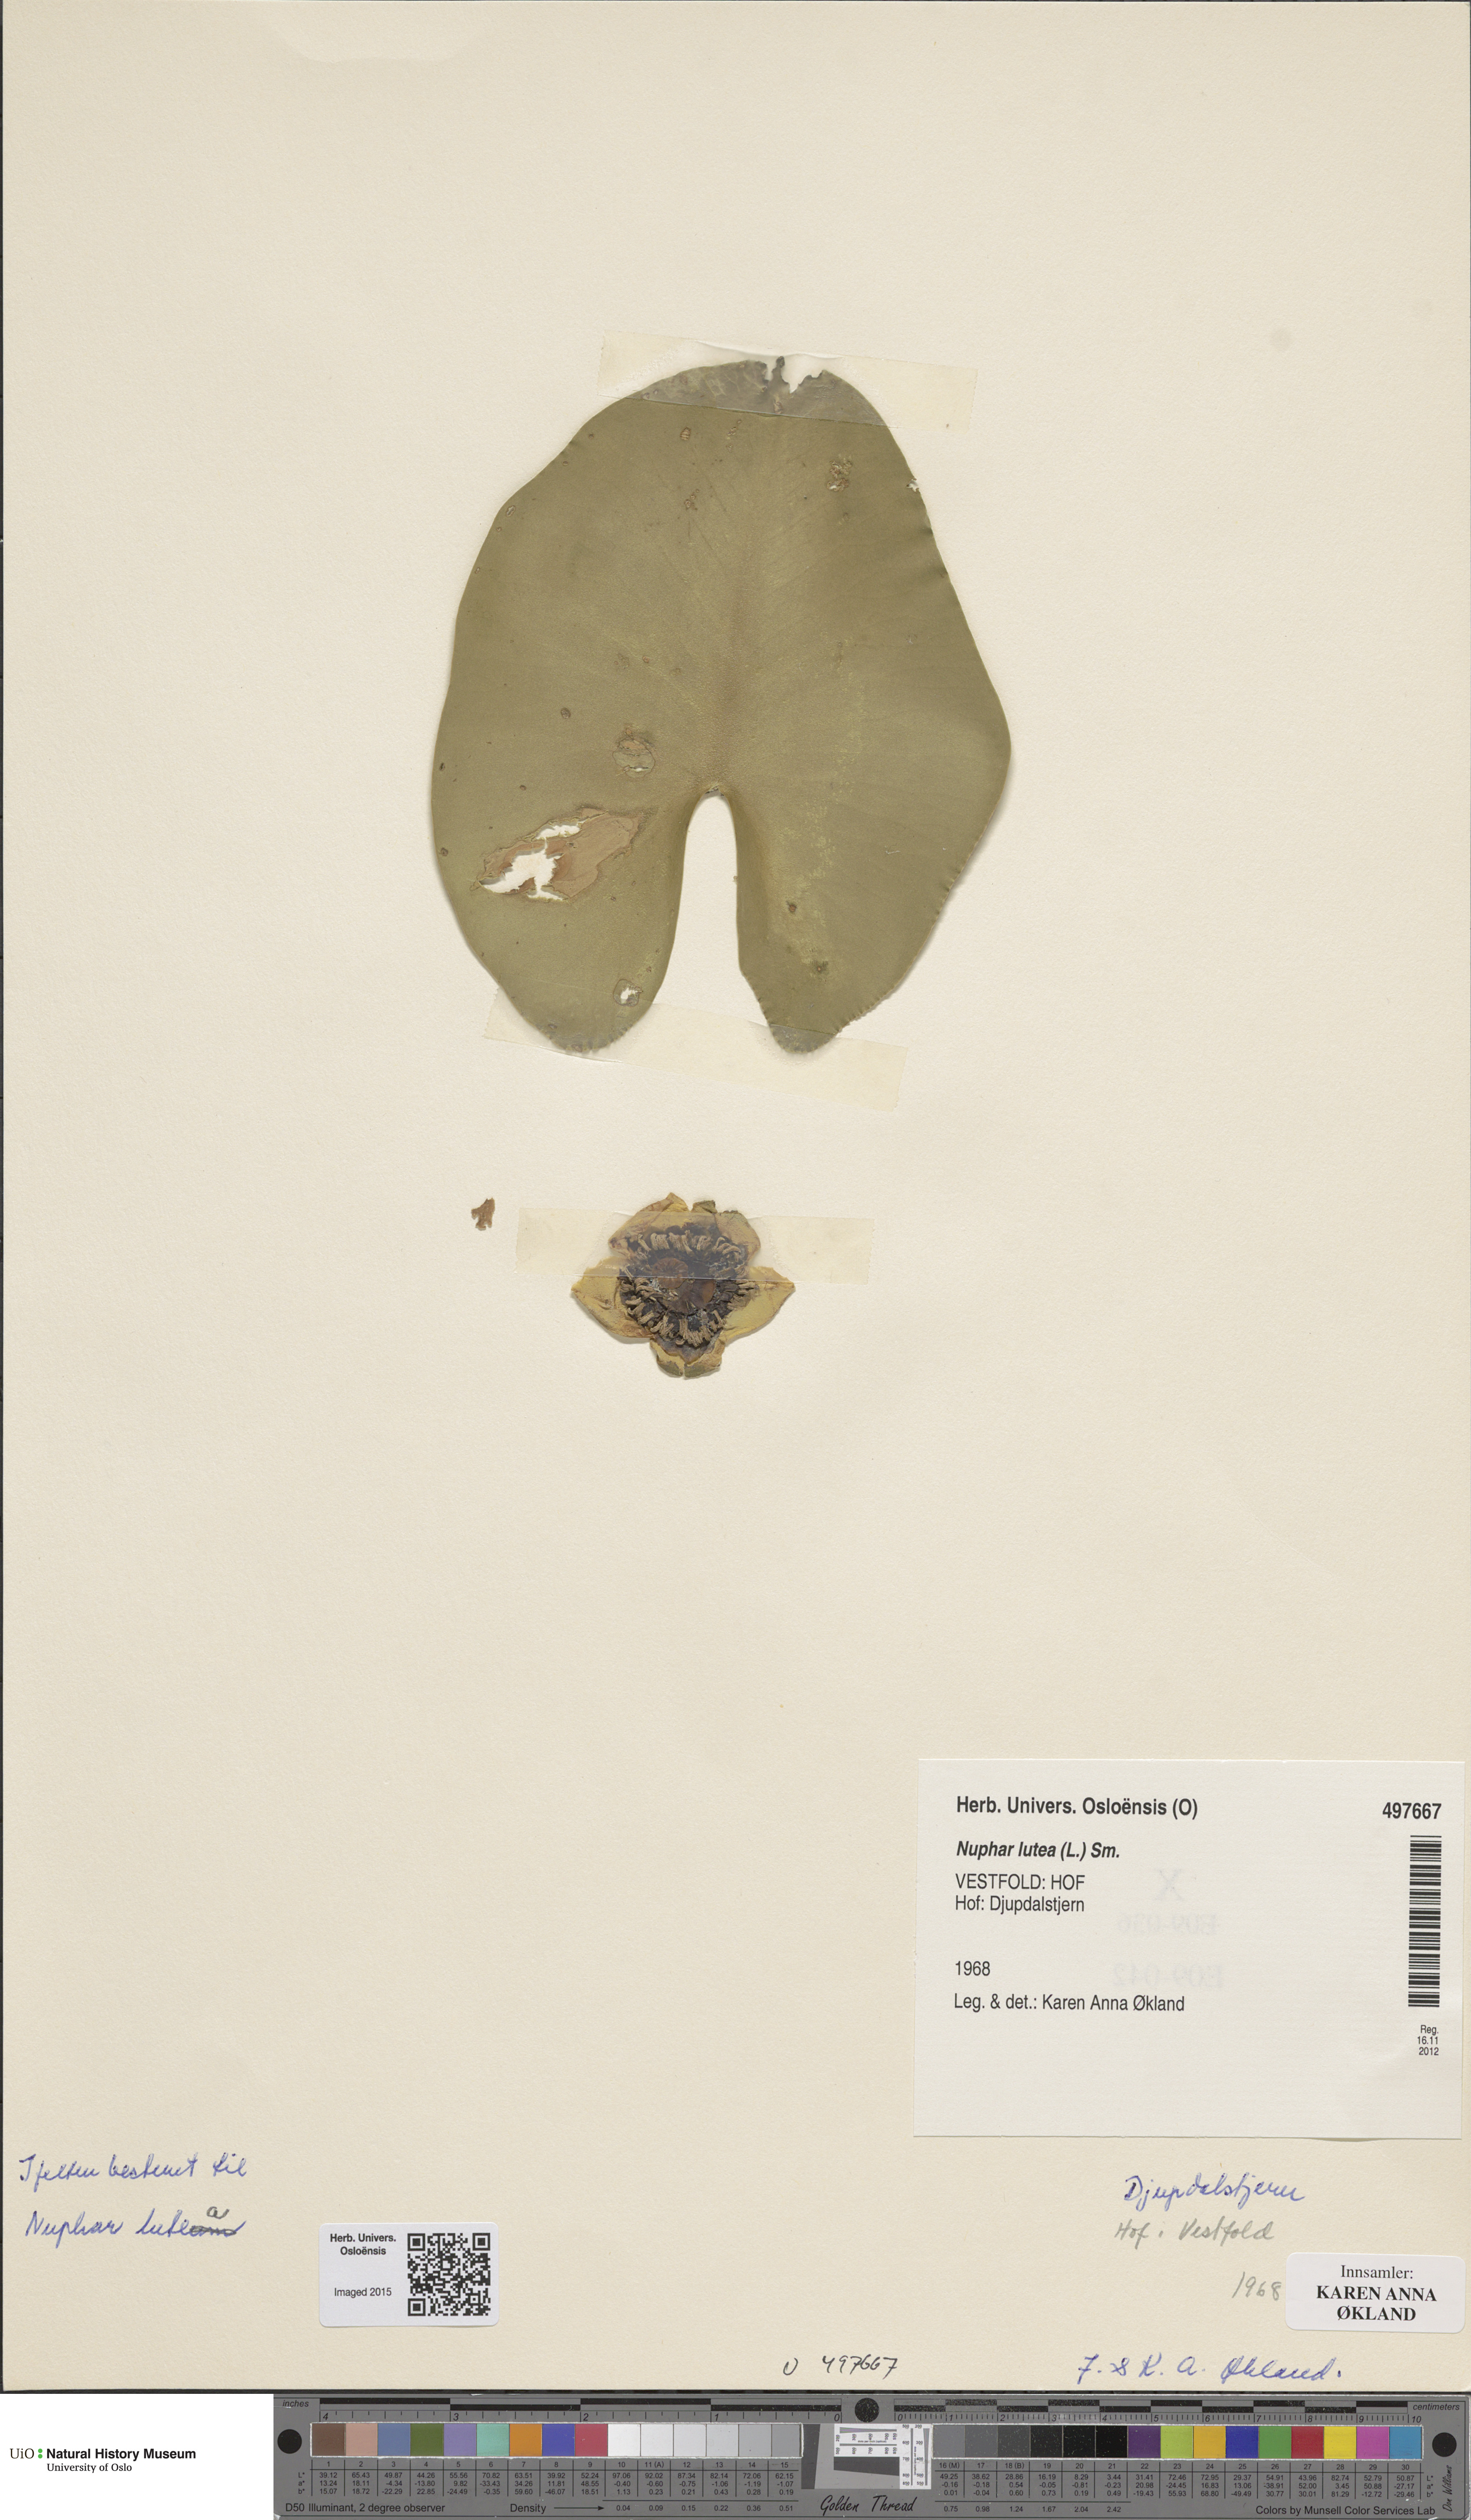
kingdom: Plantae
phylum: Tracheophyta
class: Magnoliopsida
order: Nymphaeales
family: Nymphaeaceae
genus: Nuphar
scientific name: Nuphar lutea
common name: Yellow water-lily
